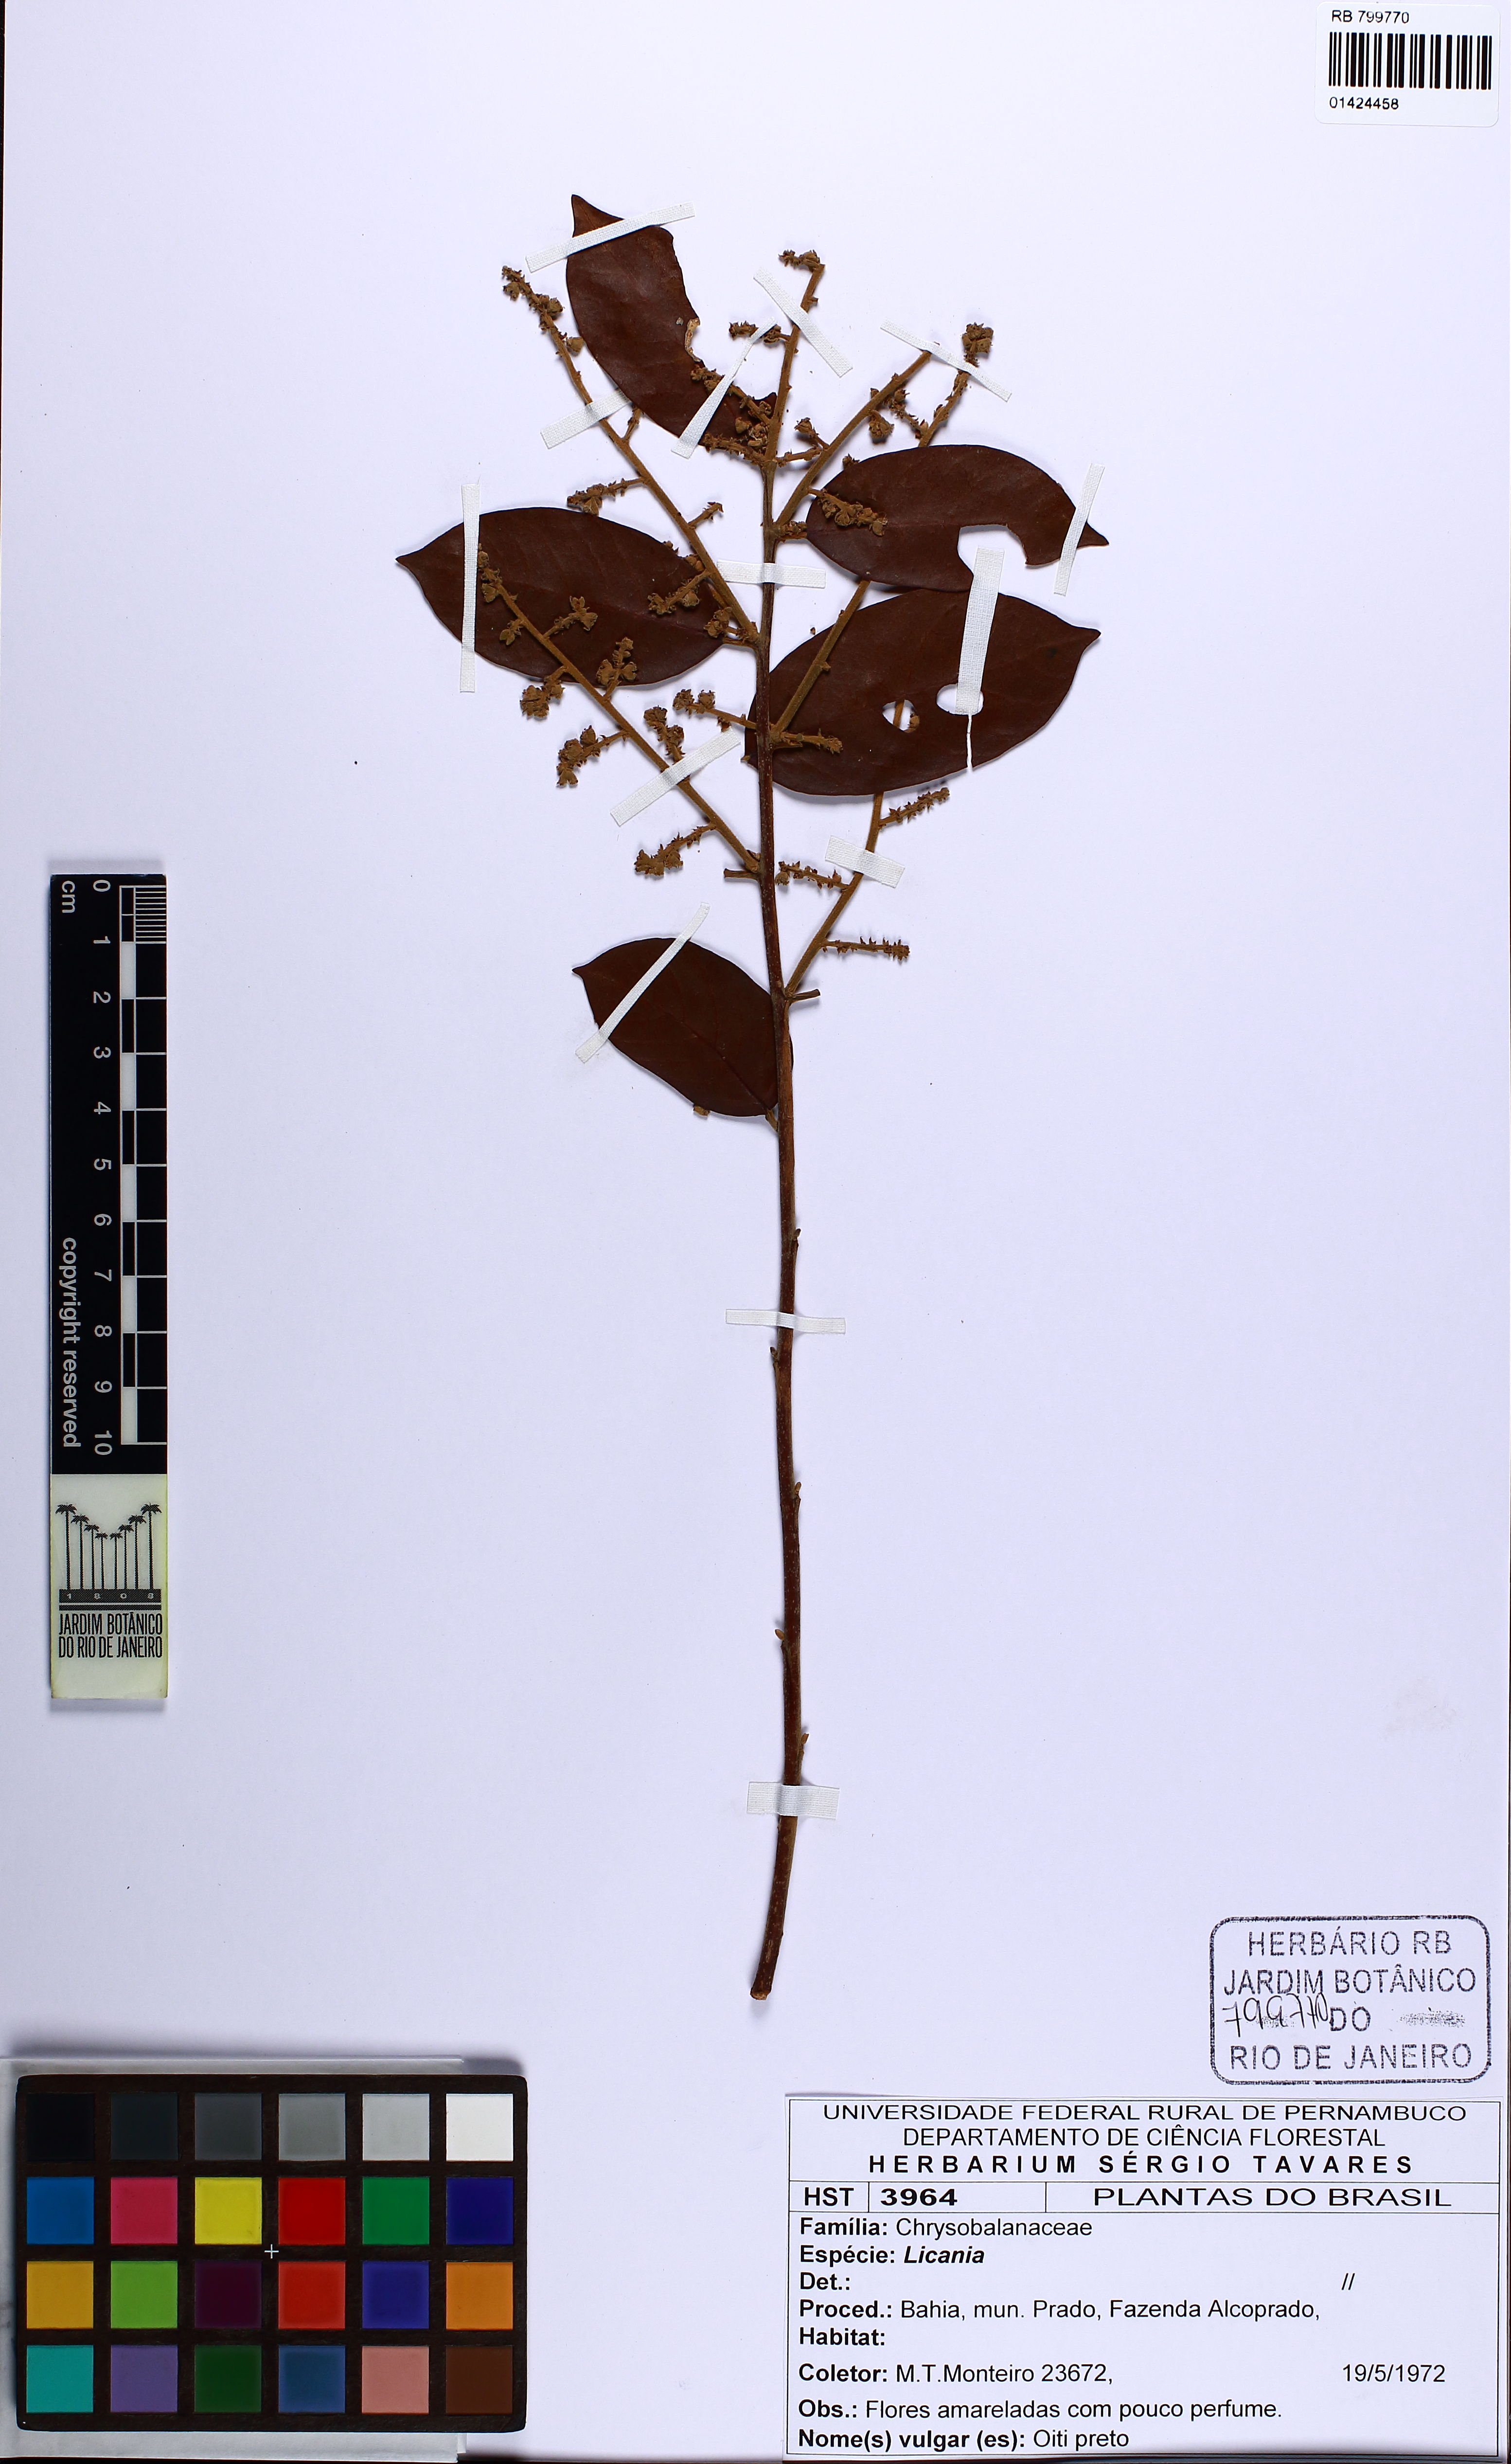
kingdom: Plantae
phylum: Tracheophyta
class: Magnoliopsida
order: Malpighiales
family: Chrysobalanaceae
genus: Licania
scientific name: Licania
